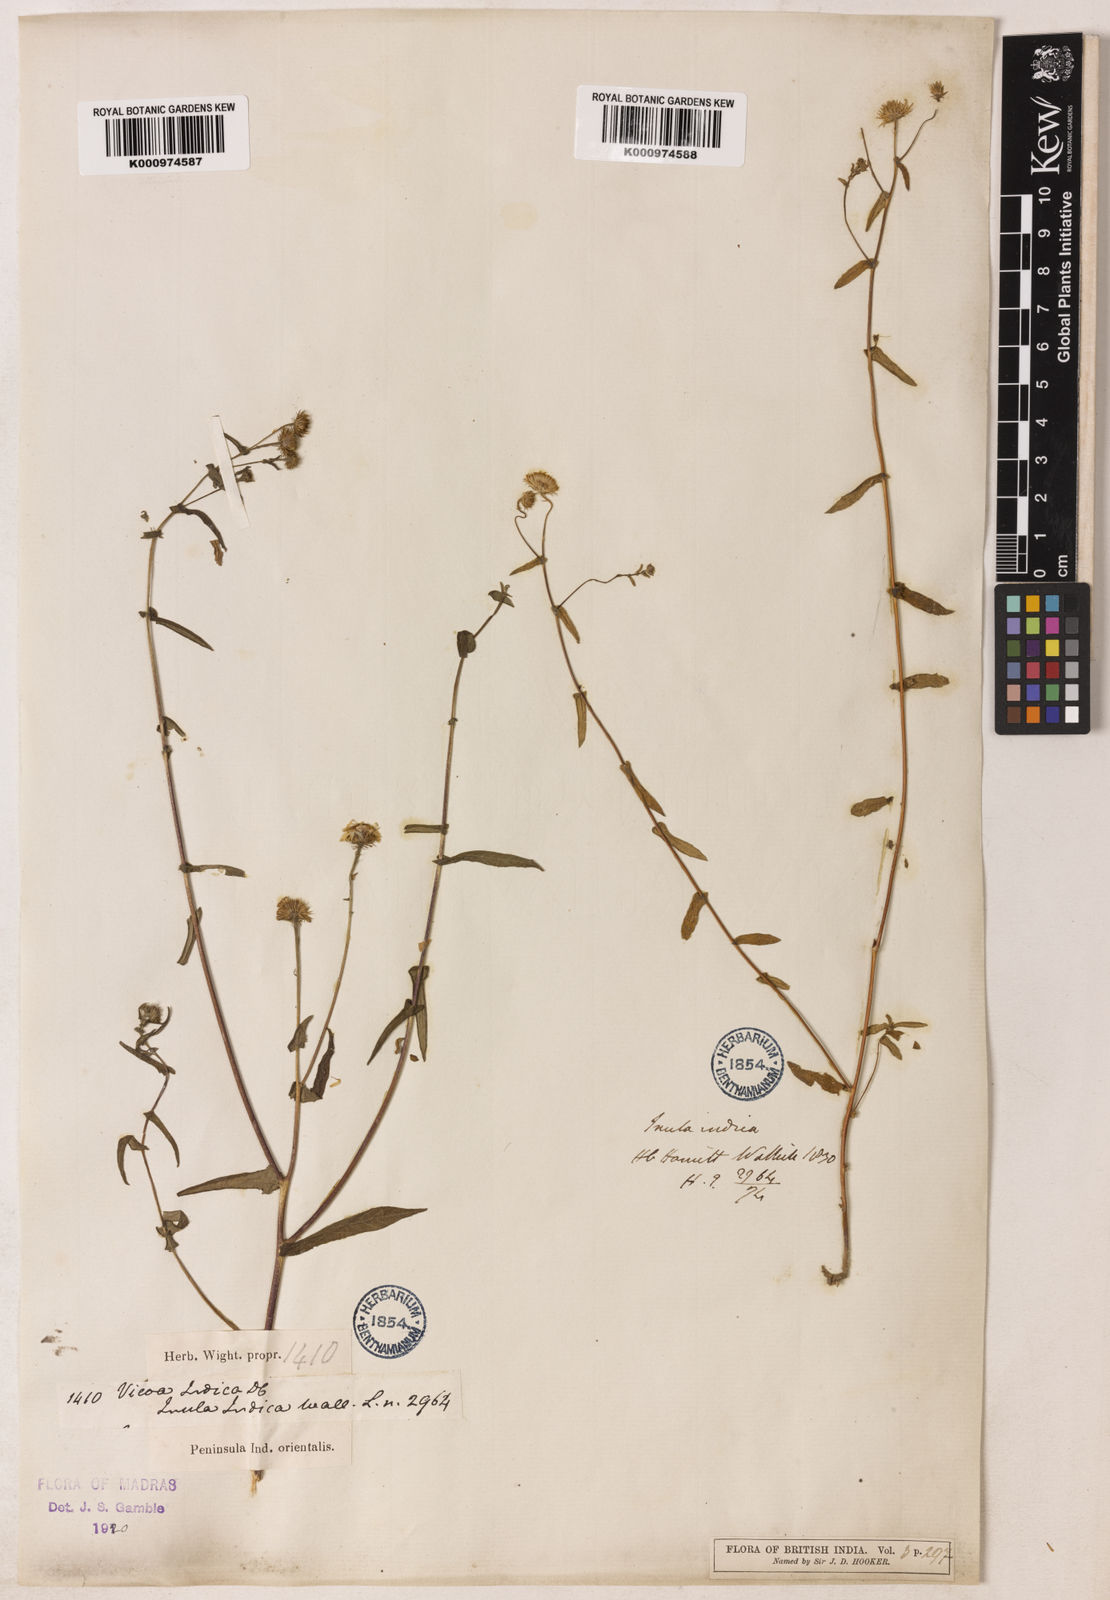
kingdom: Plantae
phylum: Tracheophyta
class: Magnoliopsida
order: Asterales
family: Asteraceae
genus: Vicoa
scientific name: Vicoa indica
